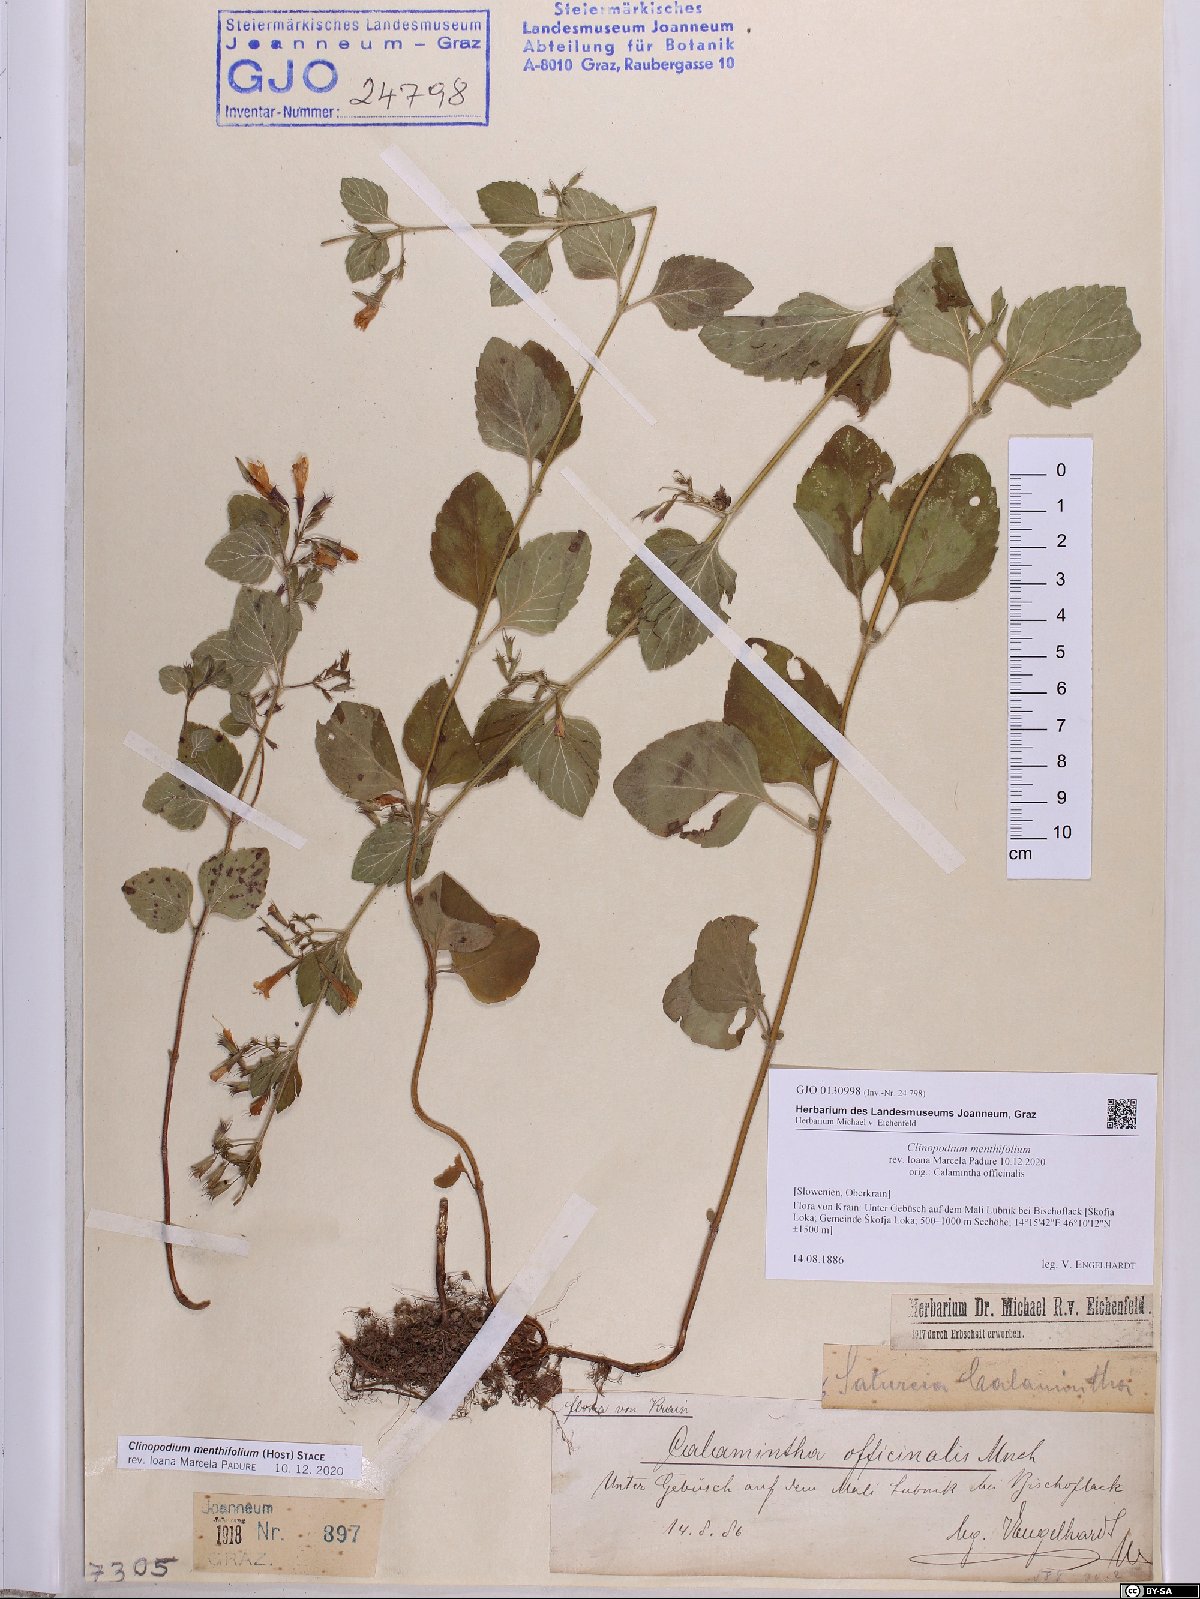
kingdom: Plantae
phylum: Tracheophyta
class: Magnoliopsida
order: Lamiales
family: Lamiaceae
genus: Clinopodium
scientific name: Clinopodium menthifolium
